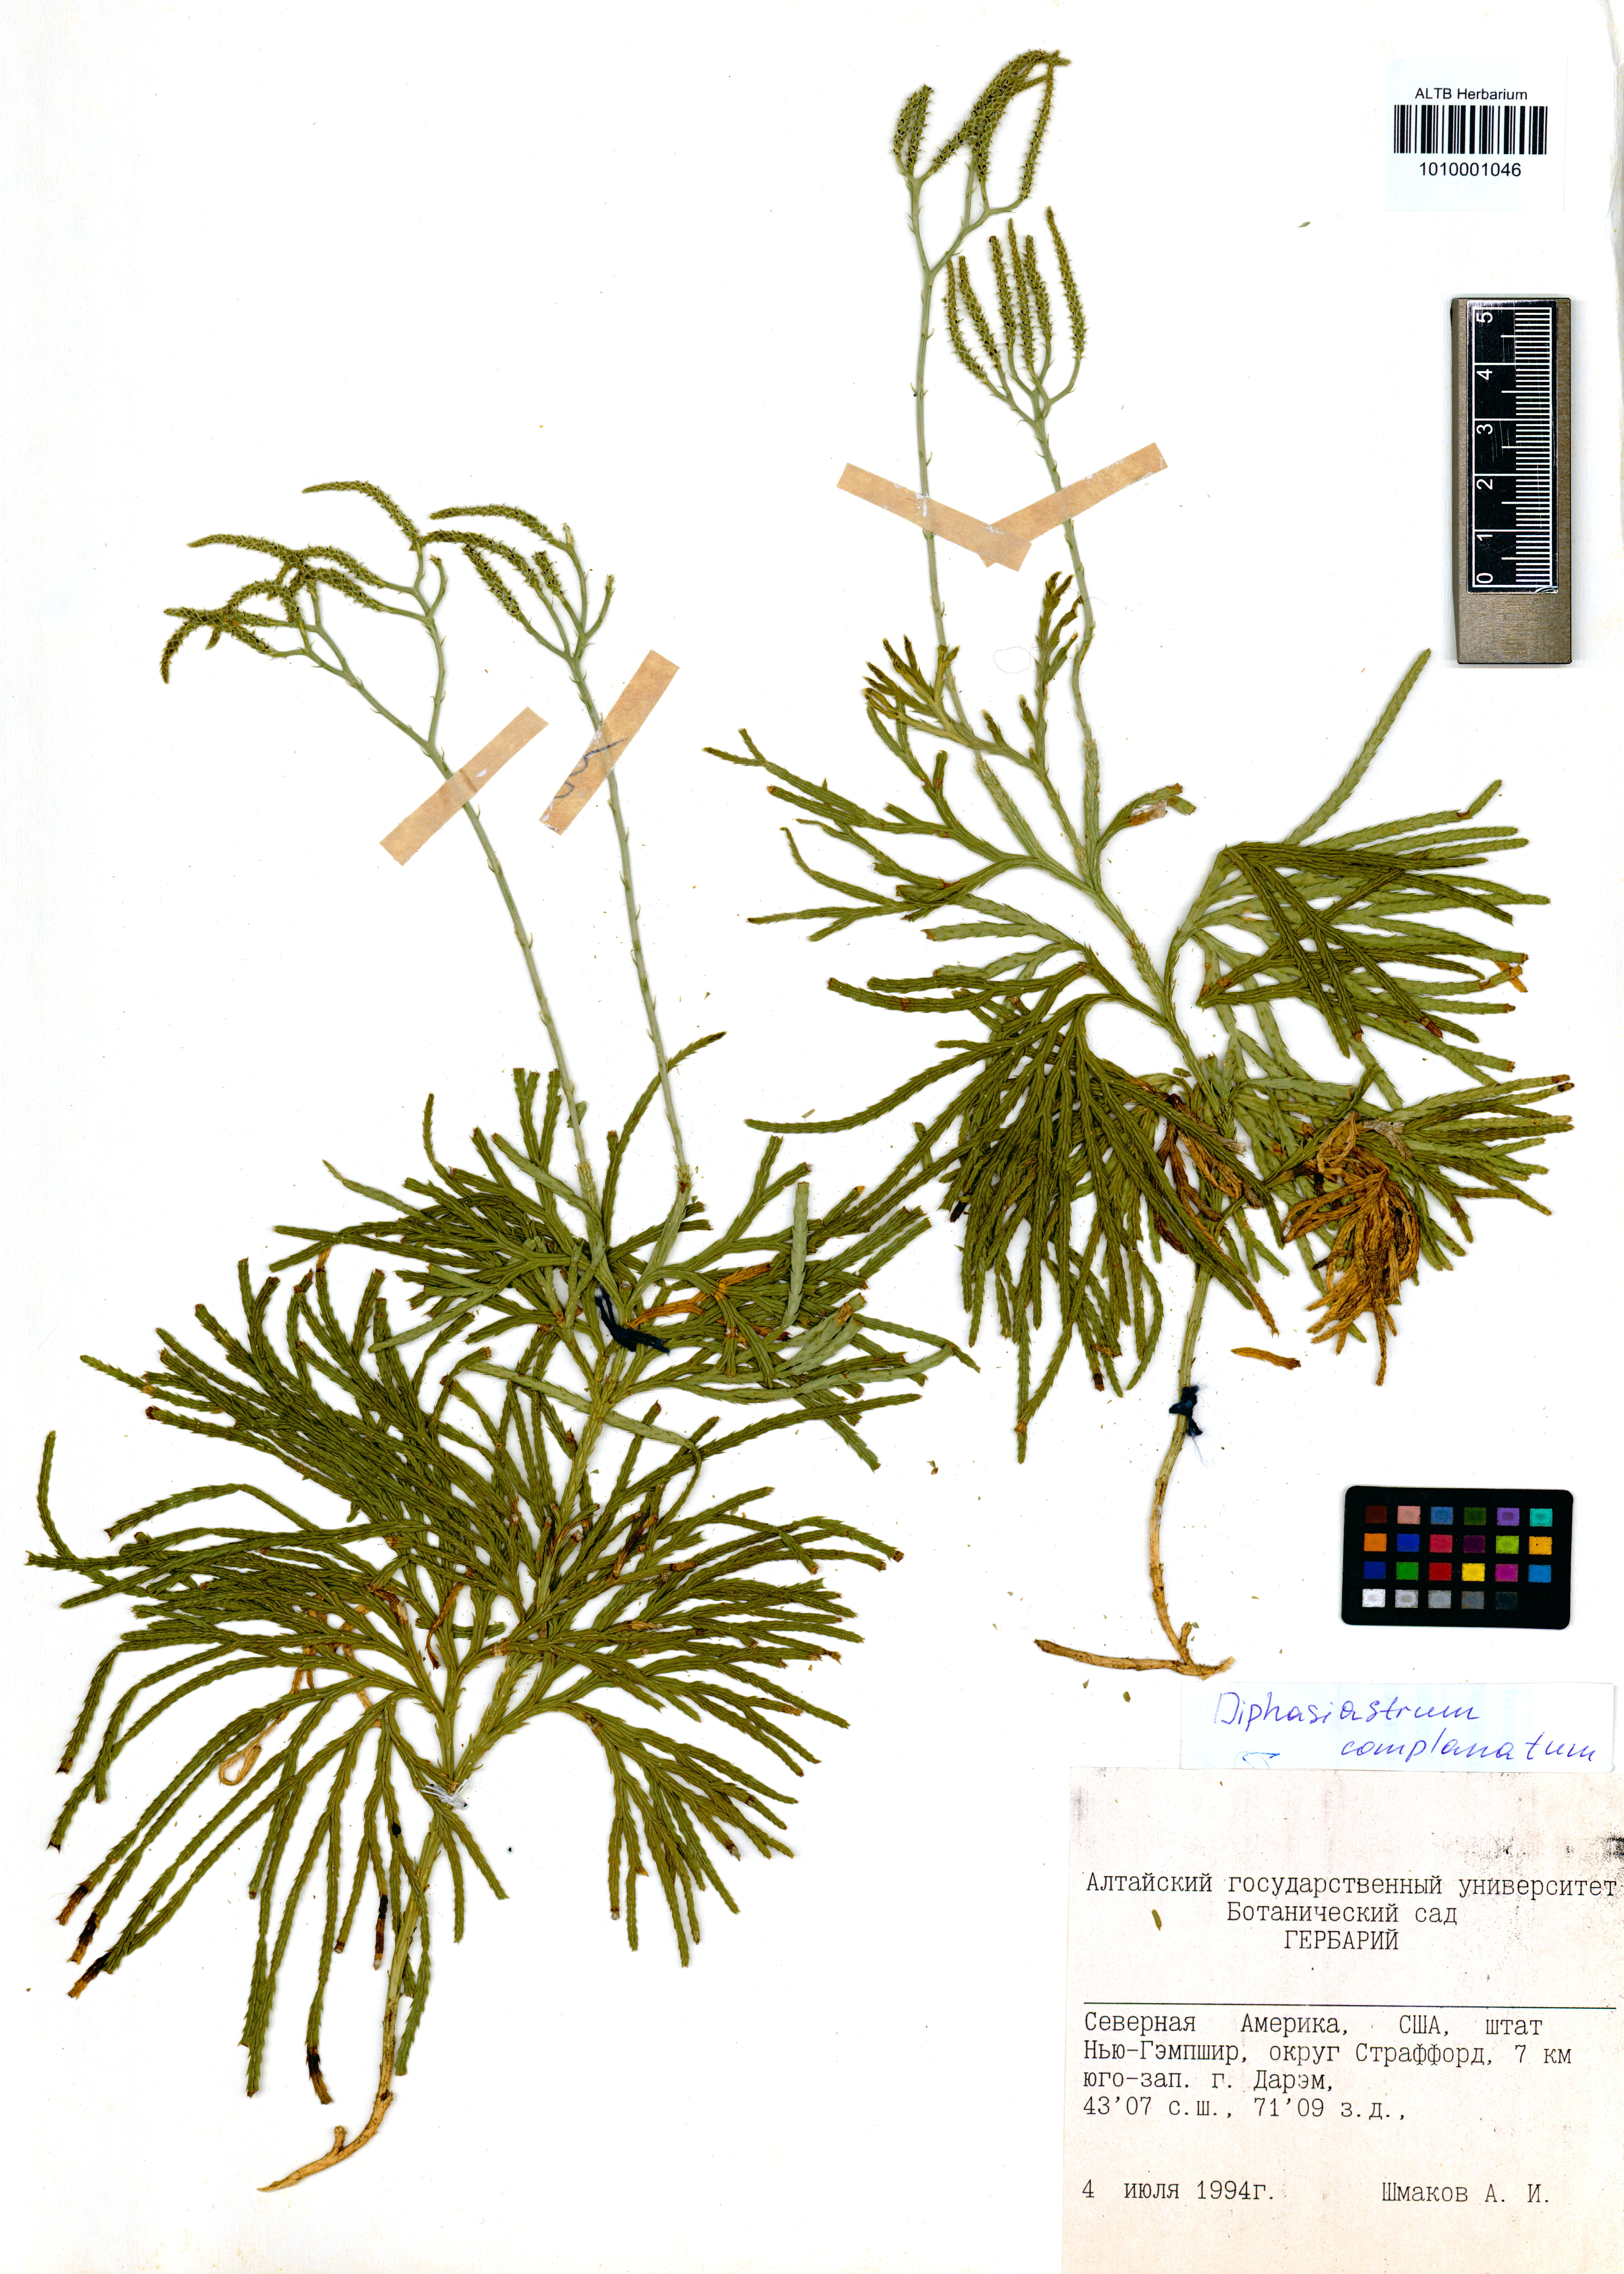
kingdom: Plantae
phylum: Tracheophyta
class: Lycopodiopsida
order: Lycopodiales
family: Lycopodiaceae
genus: Diphasiastrum
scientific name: Diphasiastrum complanatum
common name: Northern running-pine
